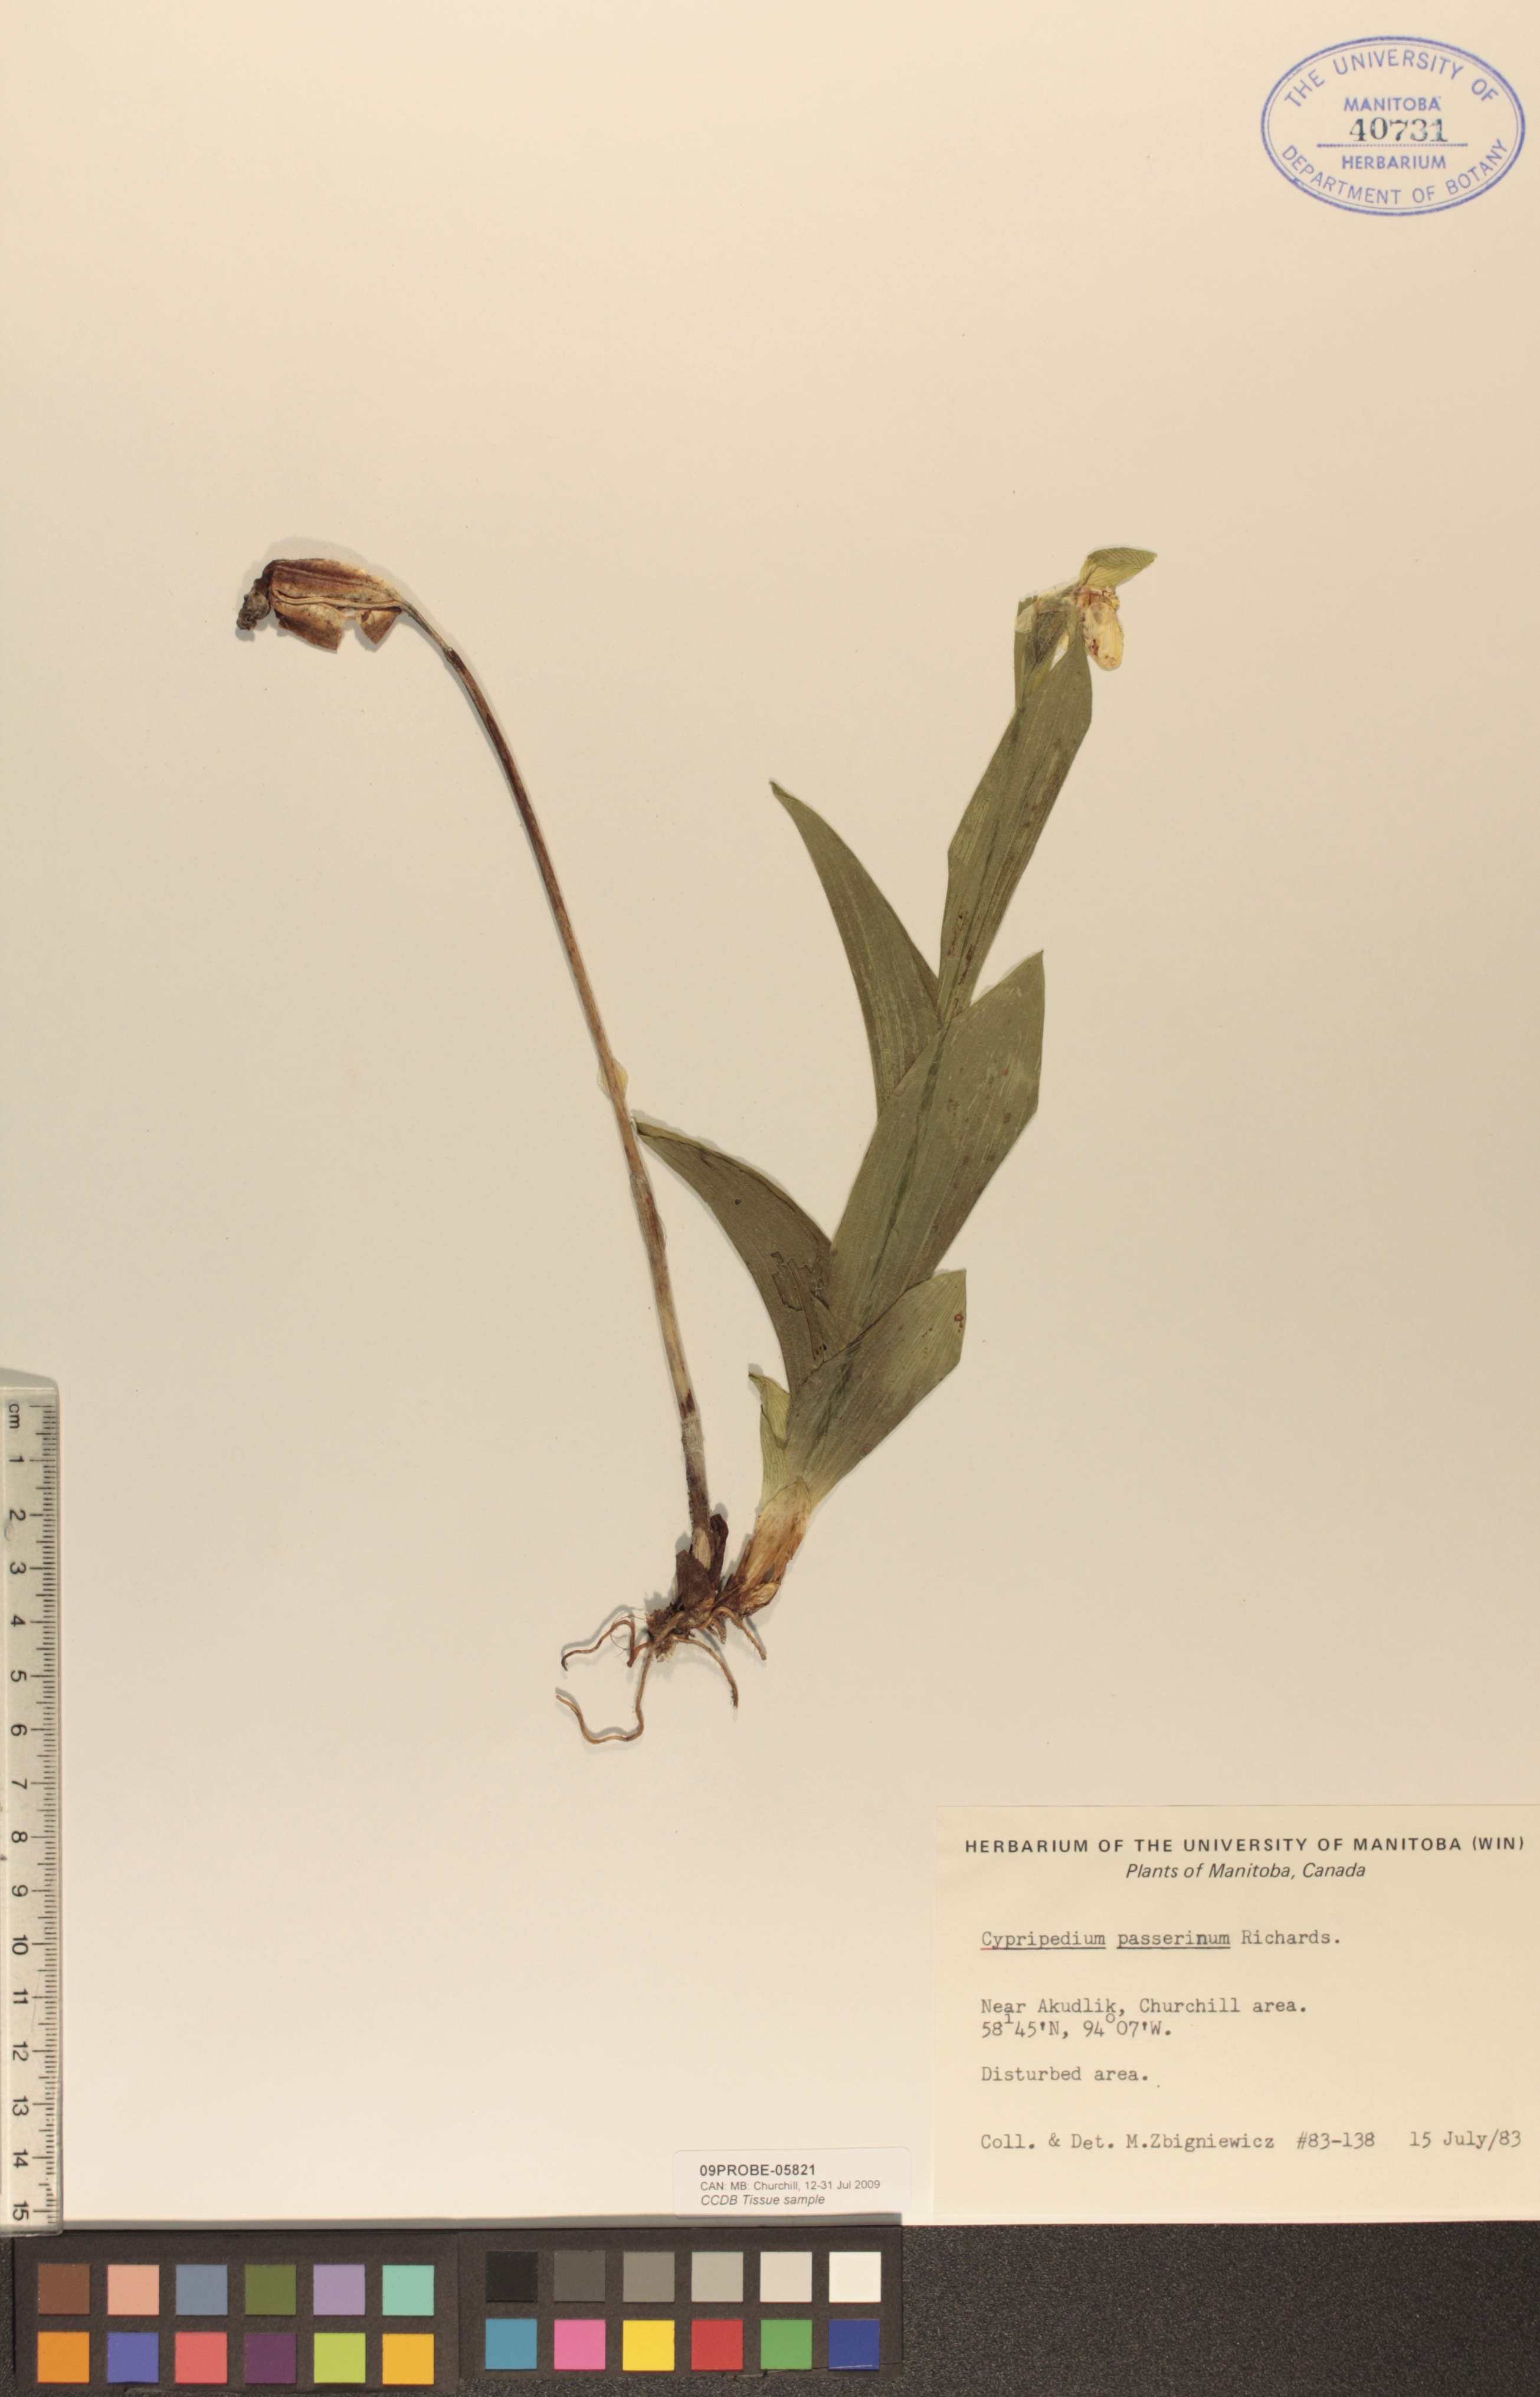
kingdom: Plantae
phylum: Tracheophyta
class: Liliopsida
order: Asparagales
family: Orchidaceae
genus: Cypripedium
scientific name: Cypripedium passerinum
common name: Sparrow's-egg lady's-slipper
